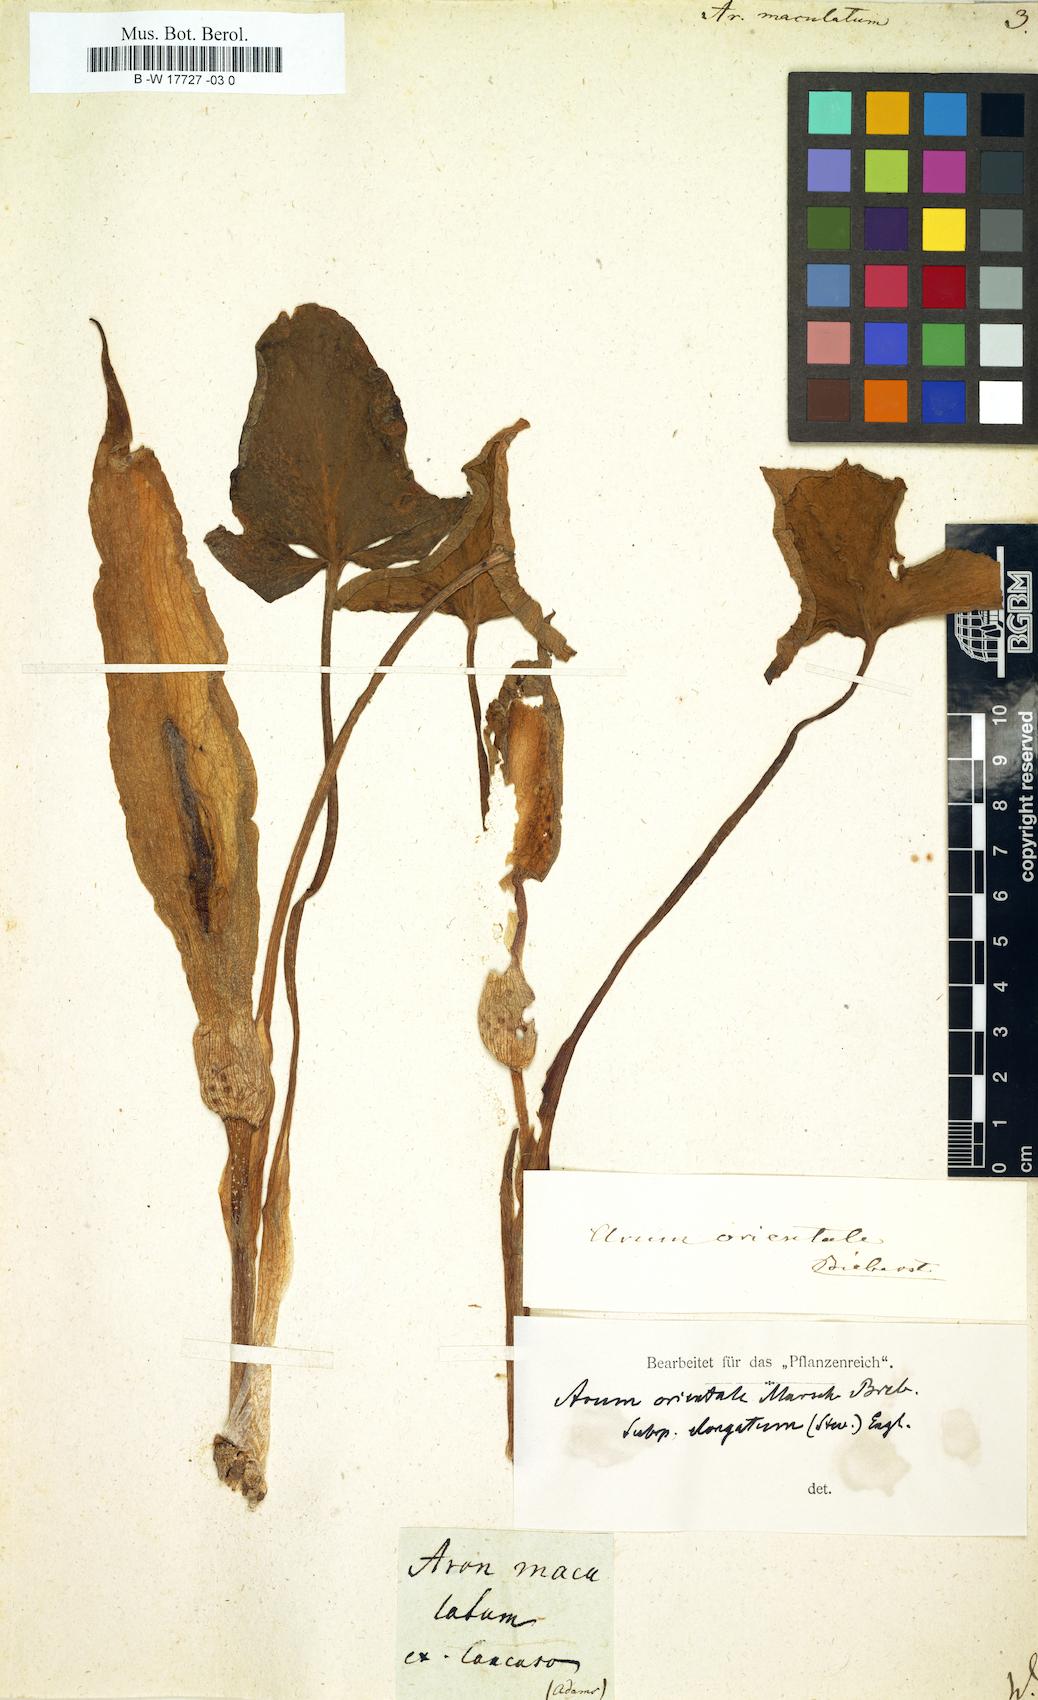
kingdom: Plantae
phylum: Tracheophyta
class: Liliopsida
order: Alismatales
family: Araceae
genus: Arum
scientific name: Arum maculatum
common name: Lords-and-ladies
